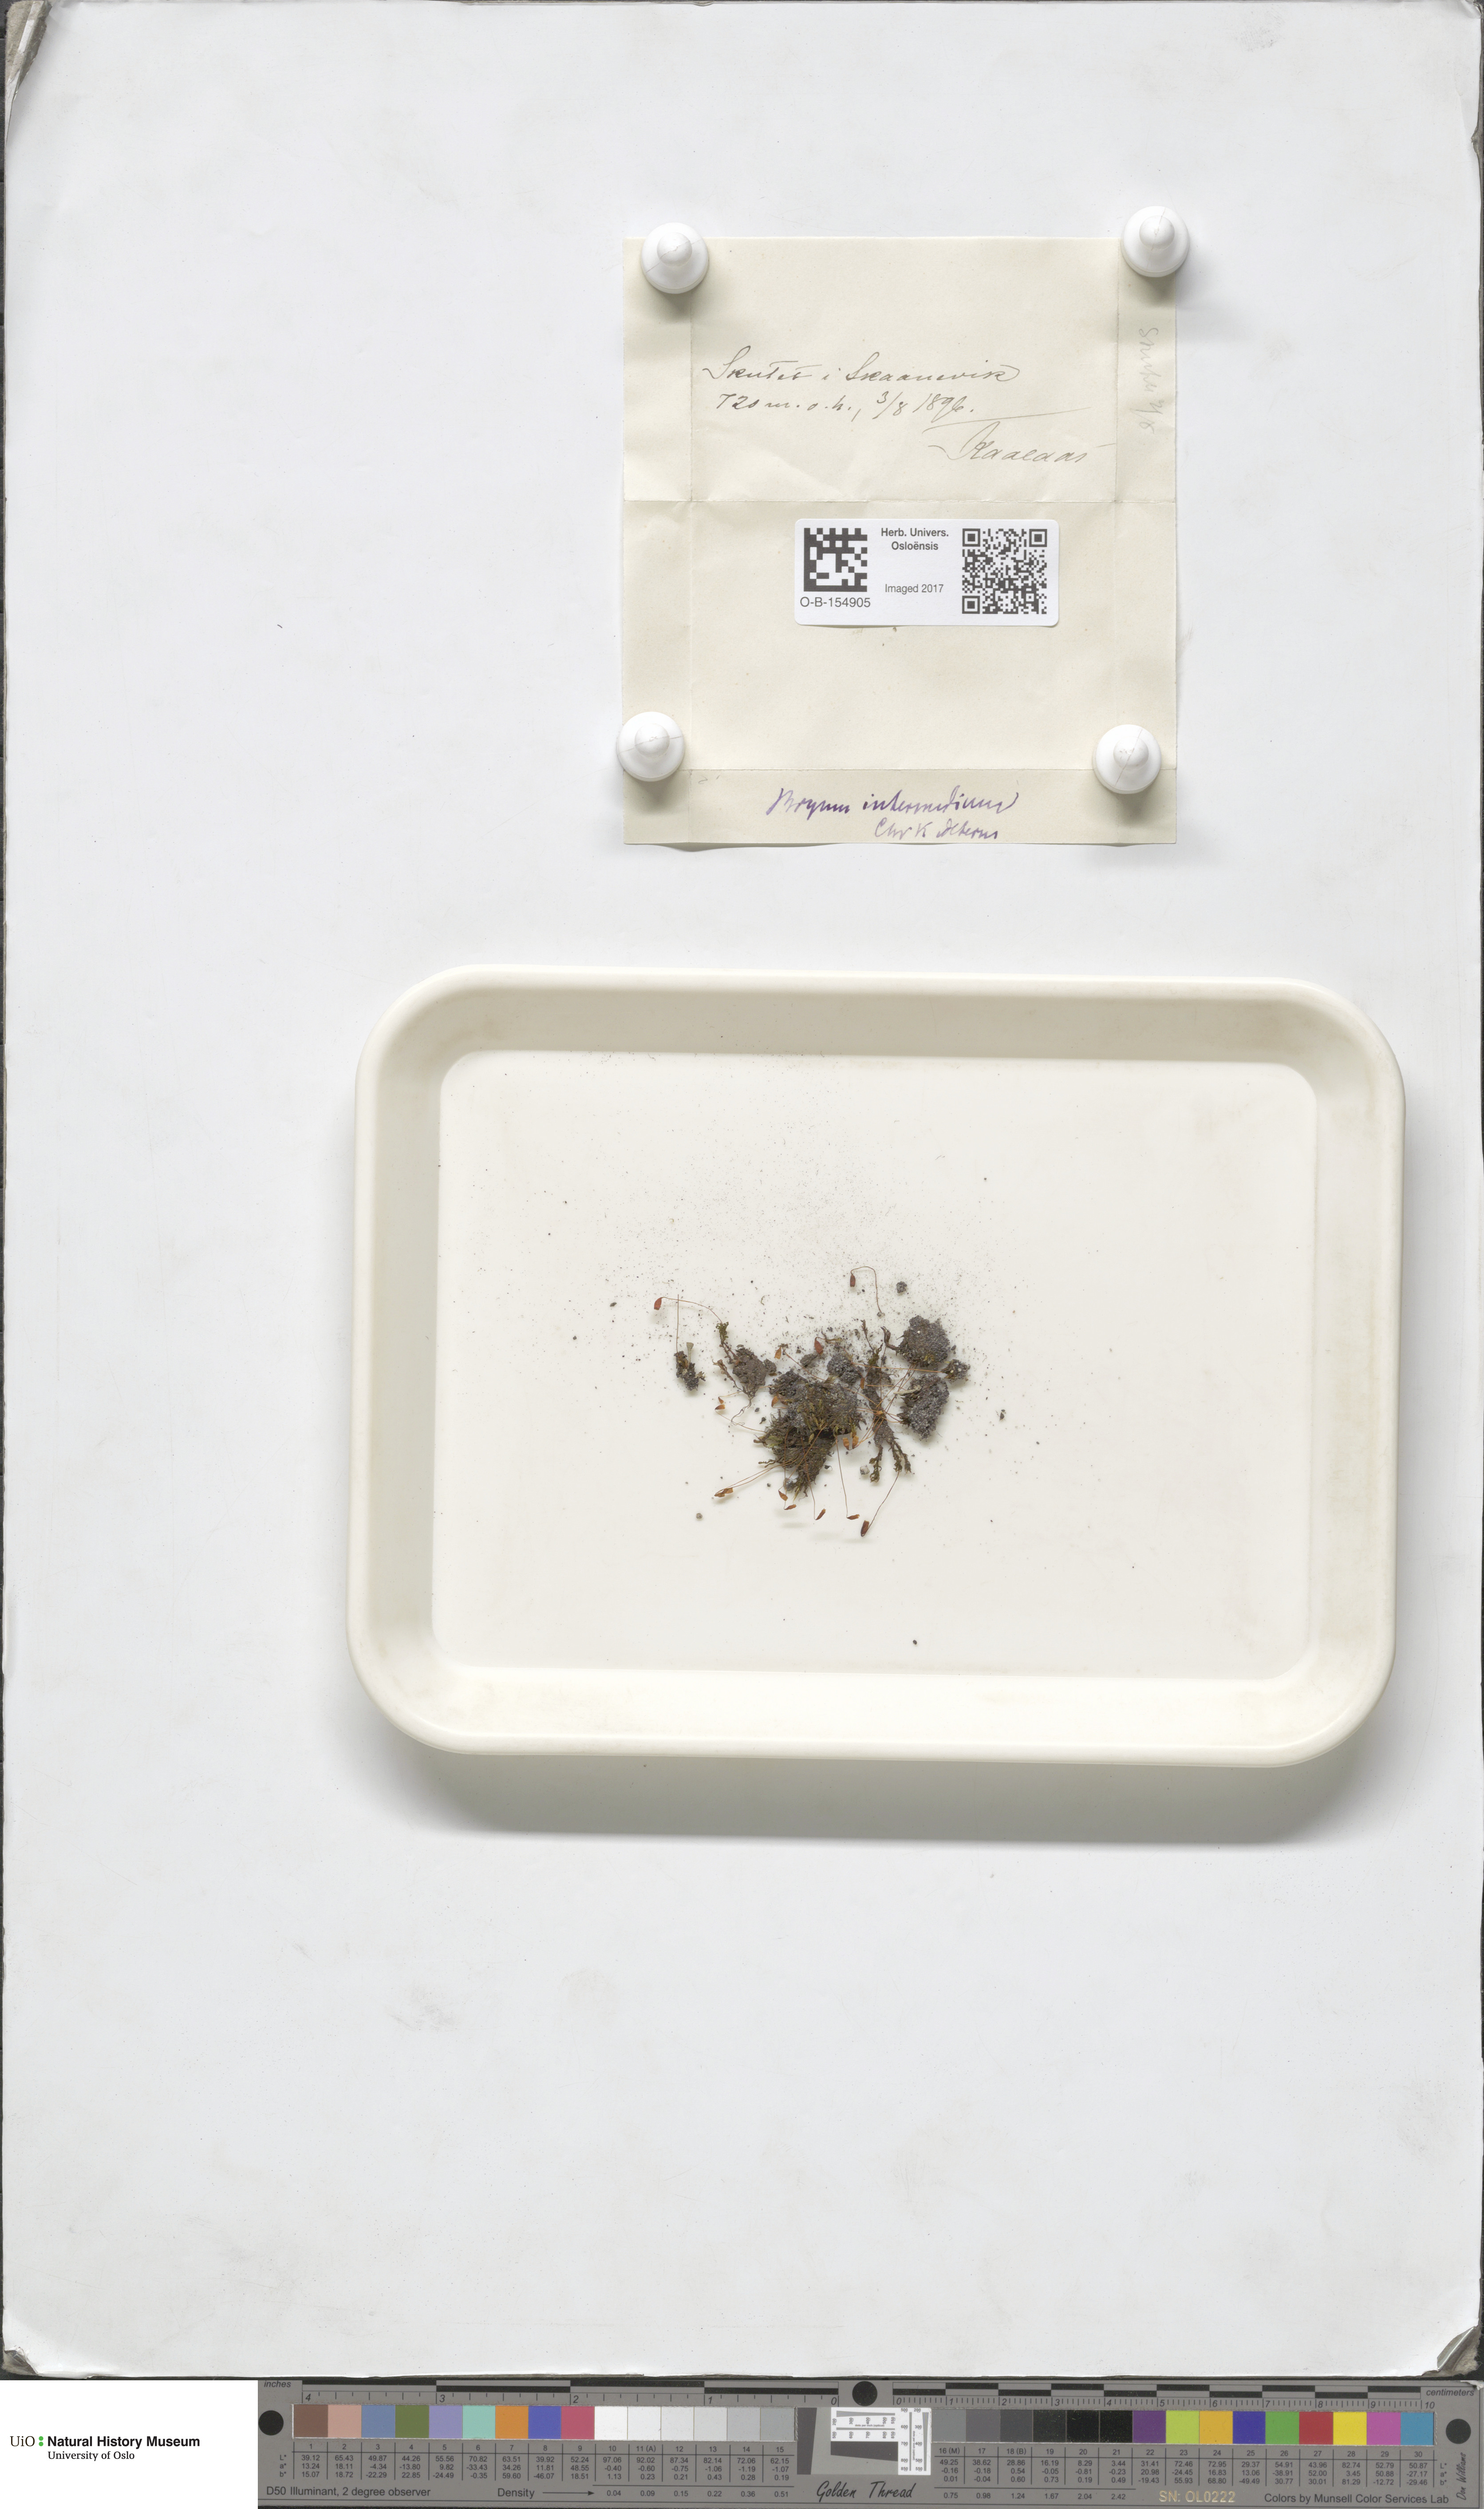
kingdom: Plantae
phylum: Bryophyta
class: Bryopsida
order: Bryales
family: Bryaceae
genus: Ptychostomum
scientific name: Ptychostomum intermedium
